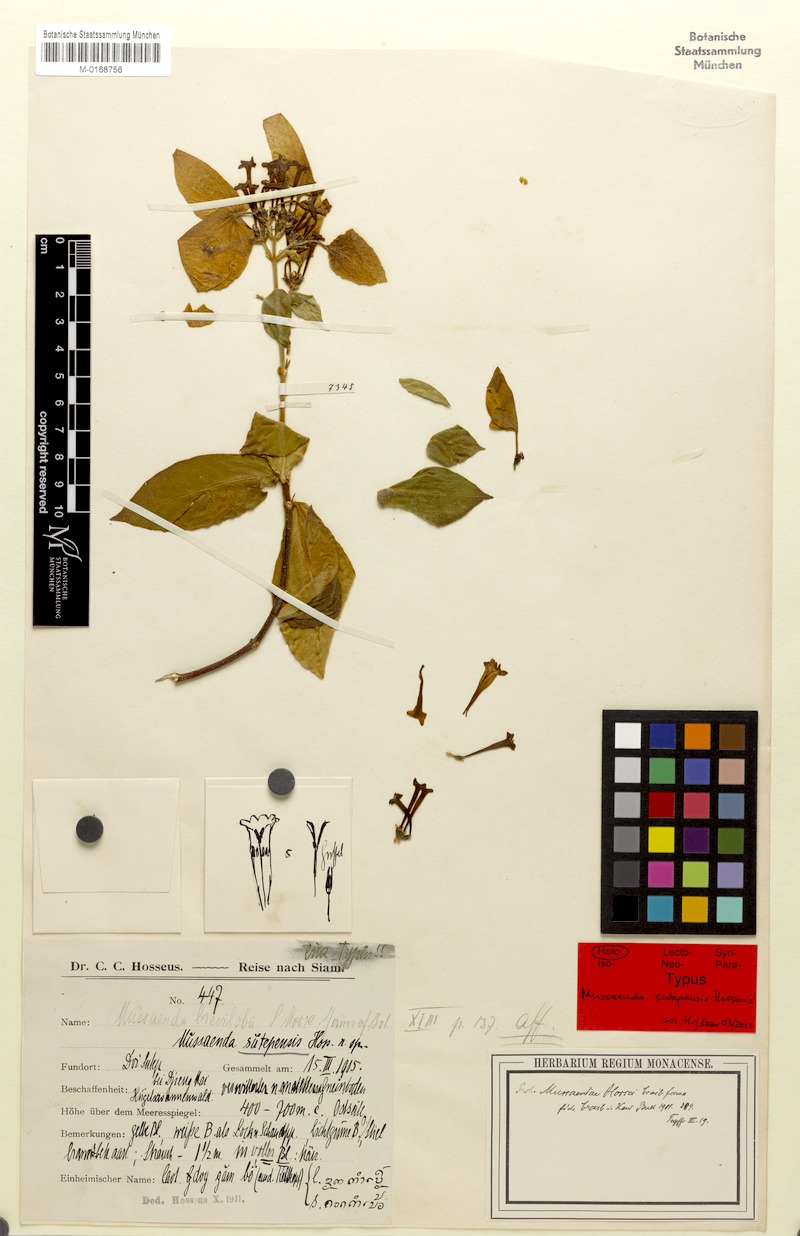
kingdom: Plantae
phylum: Tracheophyta
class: Magnoliopsida
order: Gentianales
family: Rubiaceae
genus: Mussaenda
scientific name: Mussaenda sanderiana
